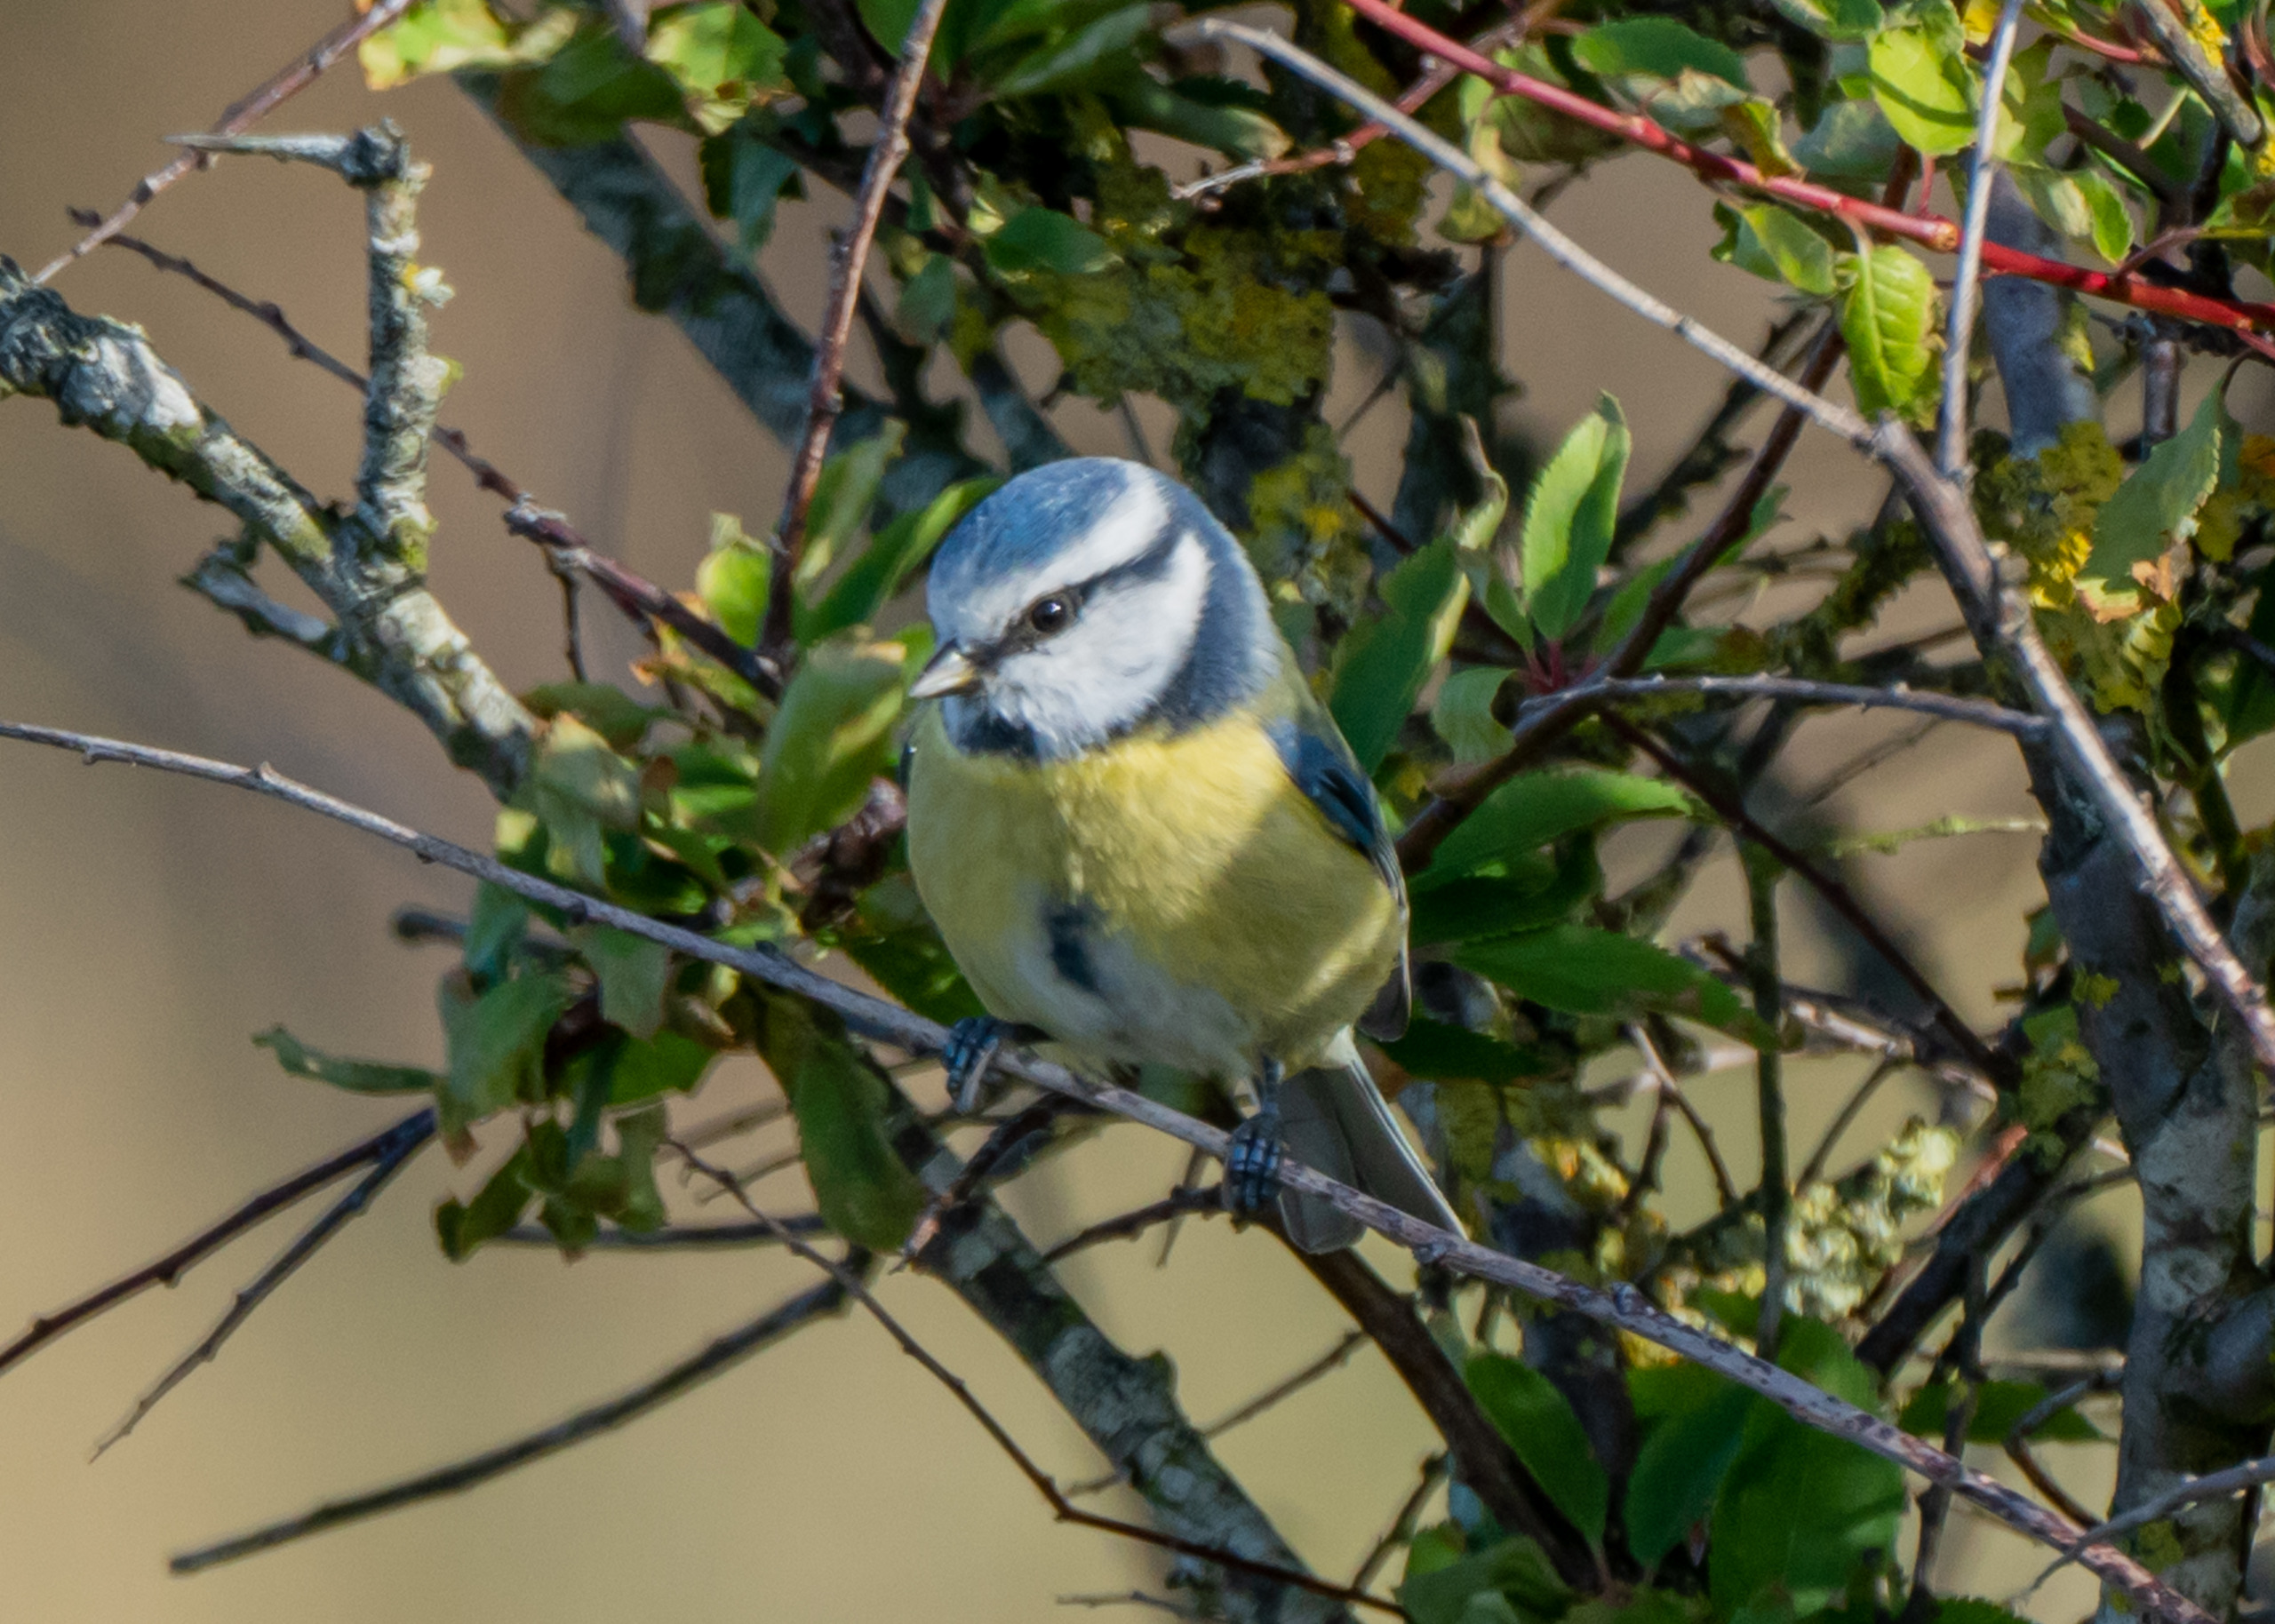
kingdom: Animalia
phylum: Chordata
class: Aves
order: Passeriformes
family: Paridae
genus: Cyanistes
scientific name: Cyanistes caeruleus
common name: Blåmejse
